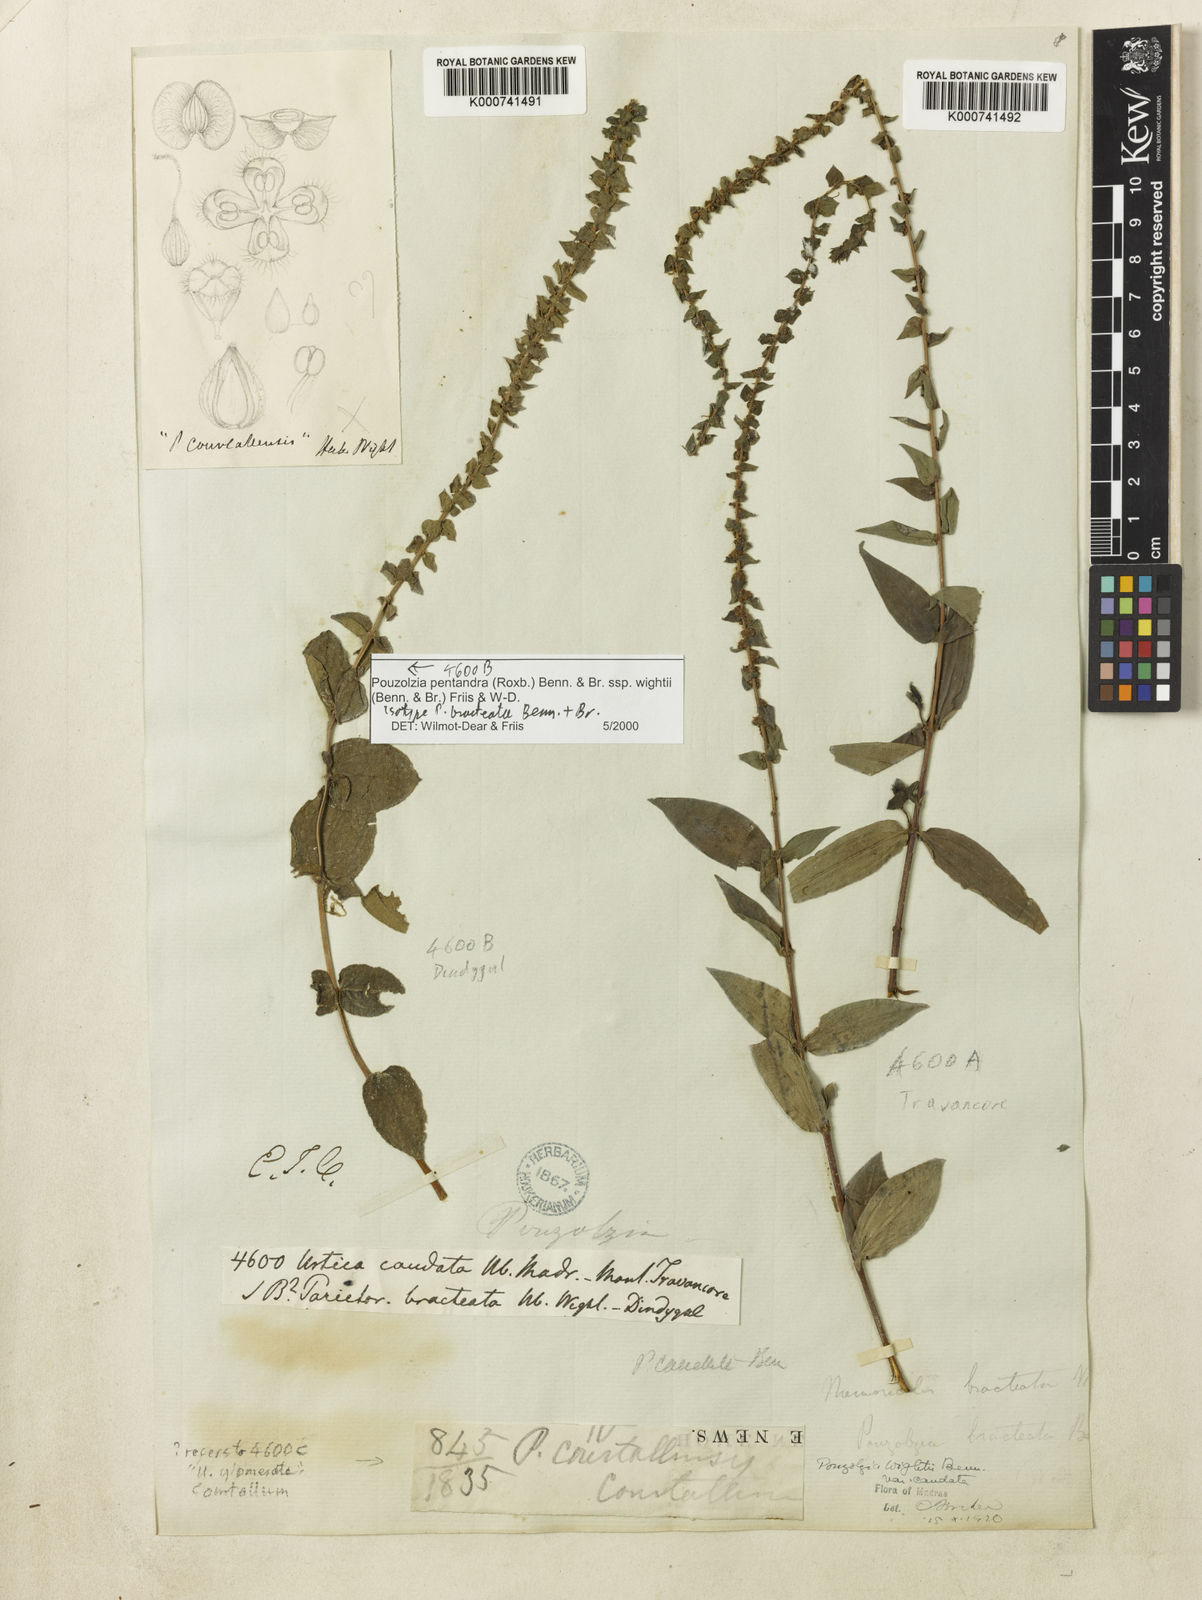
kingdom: Plantae
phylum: Tracheophyta
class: Magnoliopsida
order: Rosales
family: Urticaceae
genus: Gonostegia
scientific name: Gonostegia pentandra
